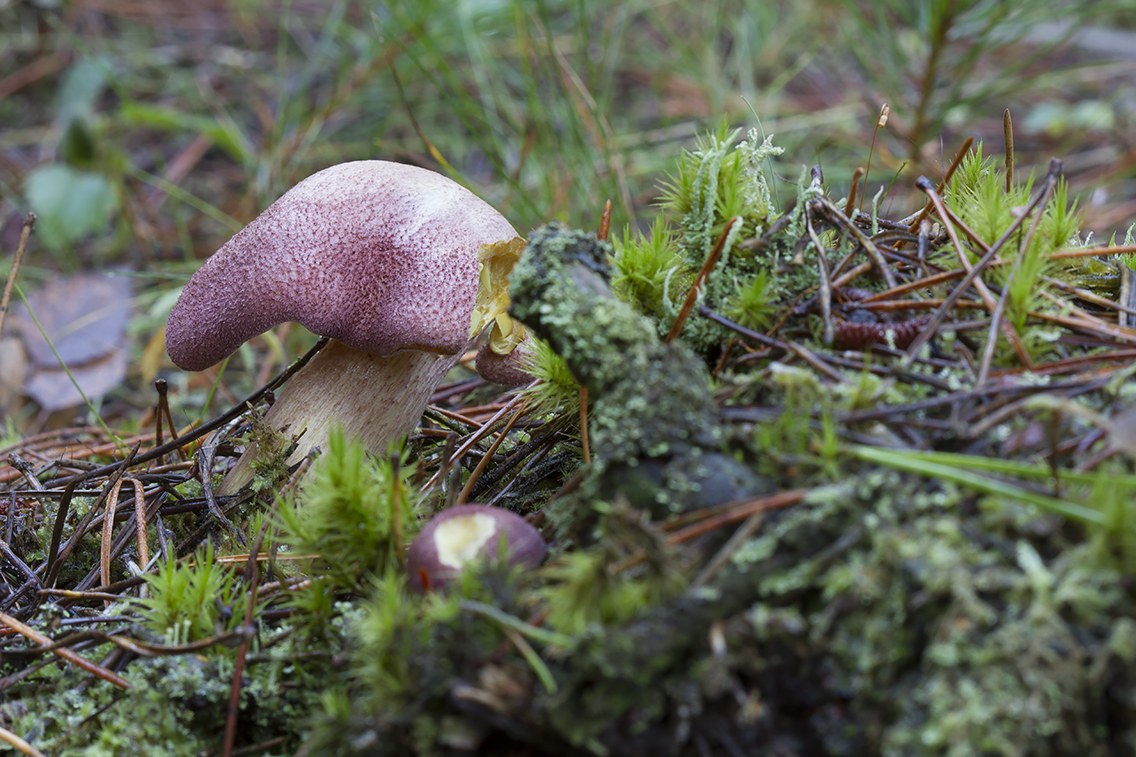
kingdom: Fungi
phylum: Basidiomycota
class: Agaricomycetes
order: Agaricales
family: Tricholomataceae
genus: Tricholomopsis
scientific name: Tricholomopsis rutilans
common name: purpur-væbnerhat
